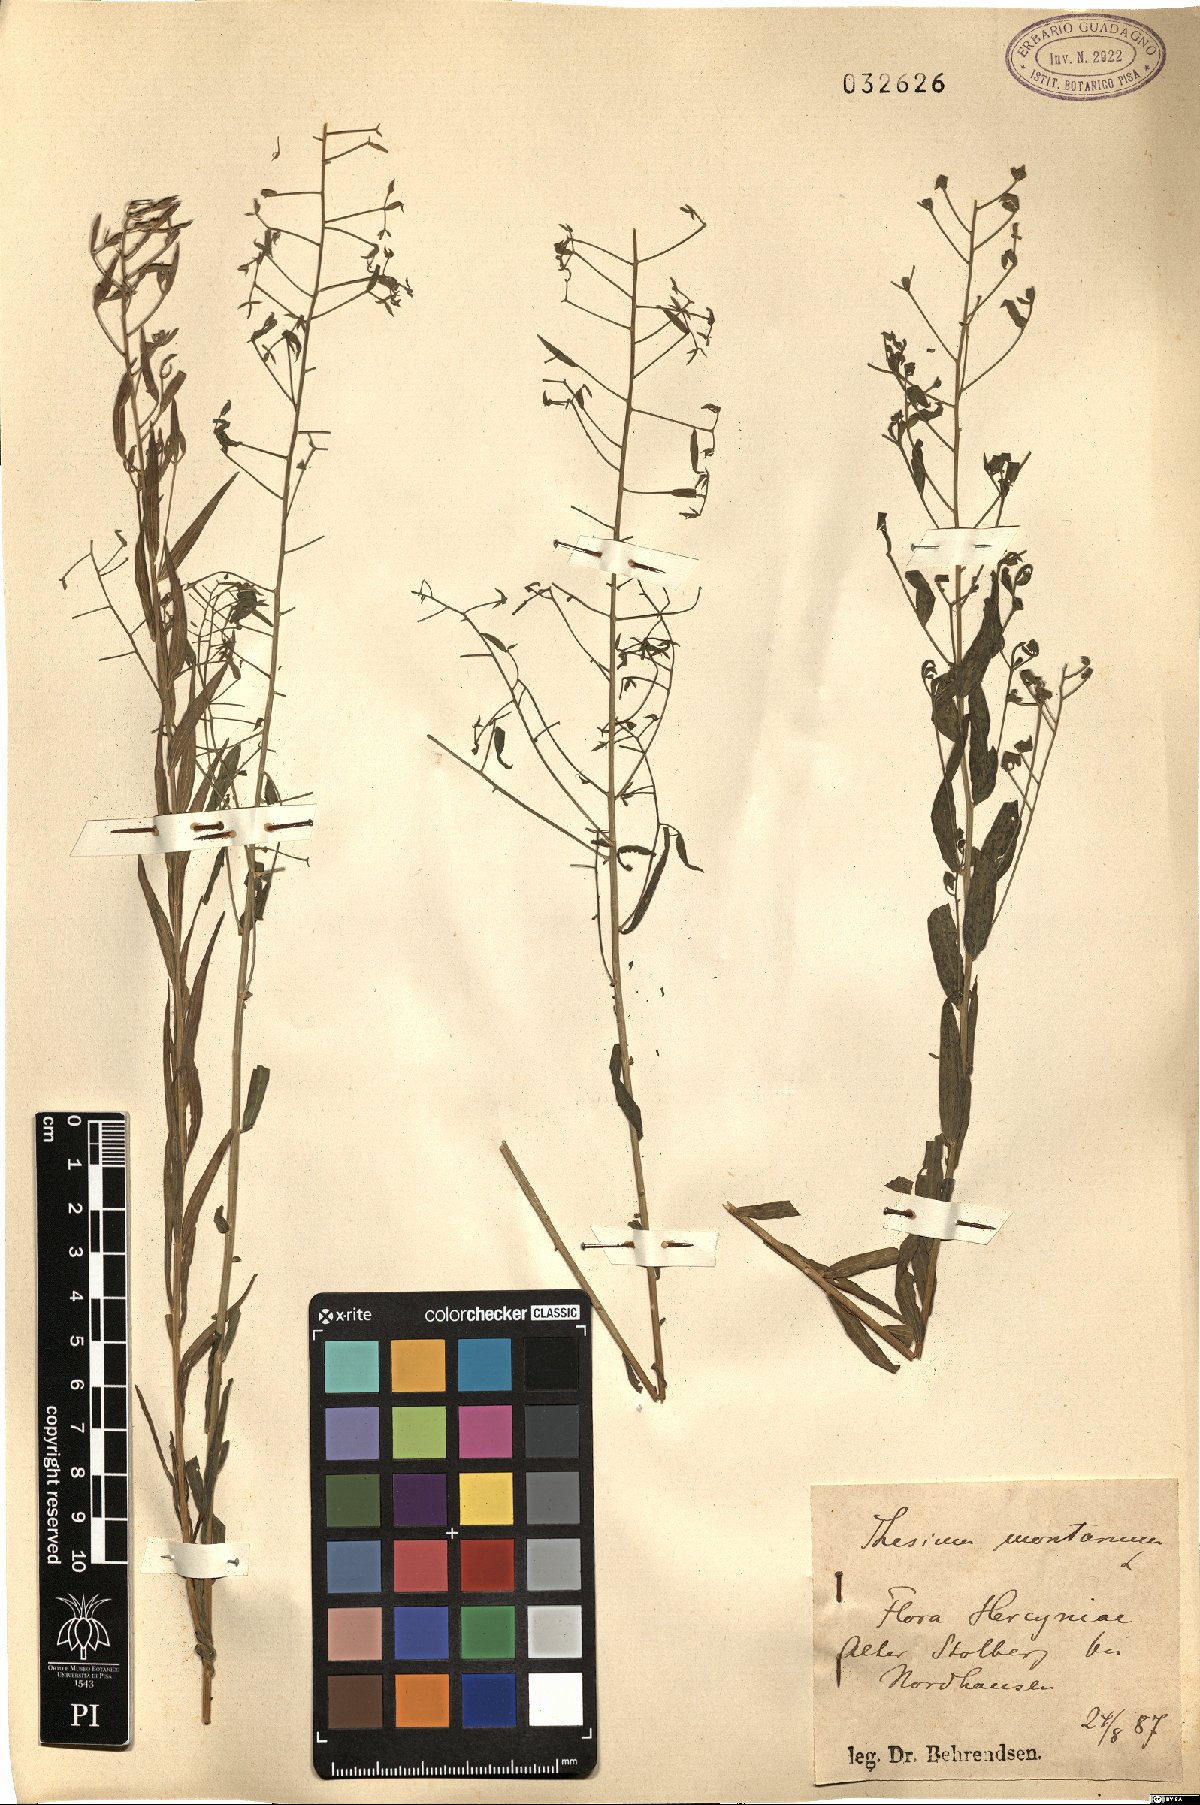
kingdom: Plantae
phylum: Tracheophyta
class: Magnoliopsida
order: Santalales
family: Thesiaceae
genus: Thesium
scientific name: Thesium bavarum
